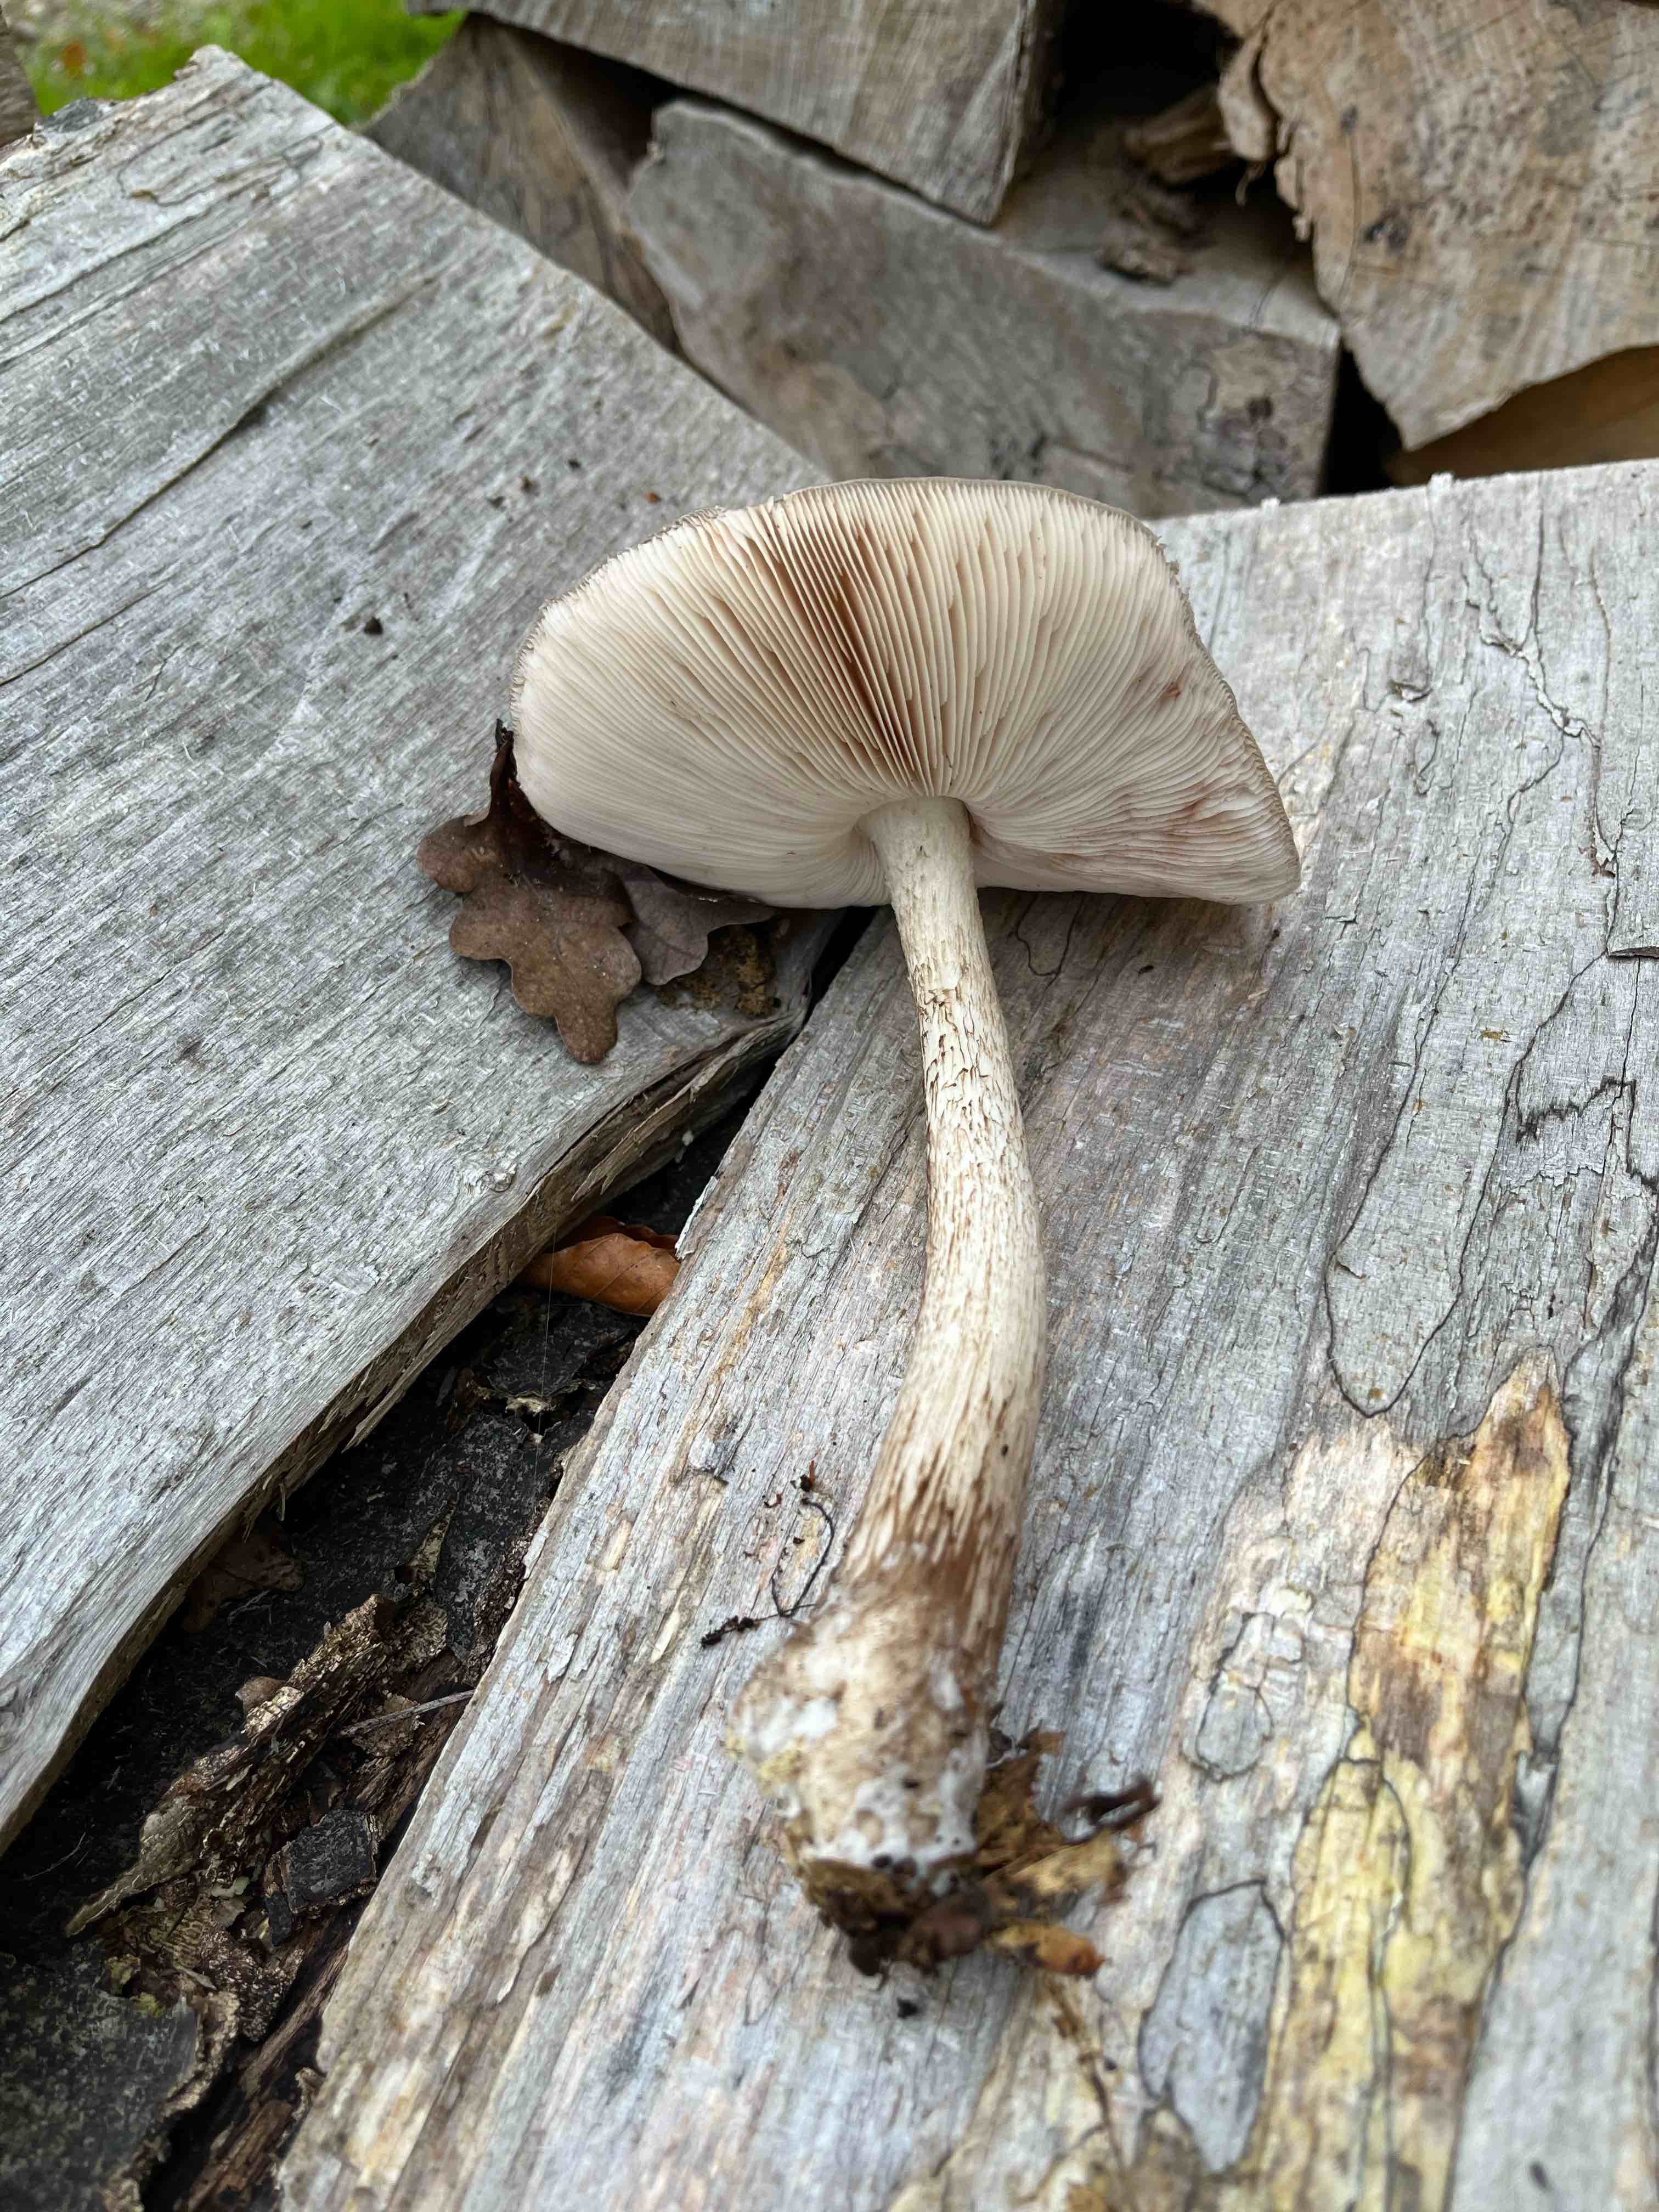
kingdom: Fungi
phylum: Basidiomycota
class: Agaricomycetes
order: Agaricales
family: Pluteaceae
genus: Pluteus
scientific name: Pluteus cervinus
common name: sodfarvet skærmhat
